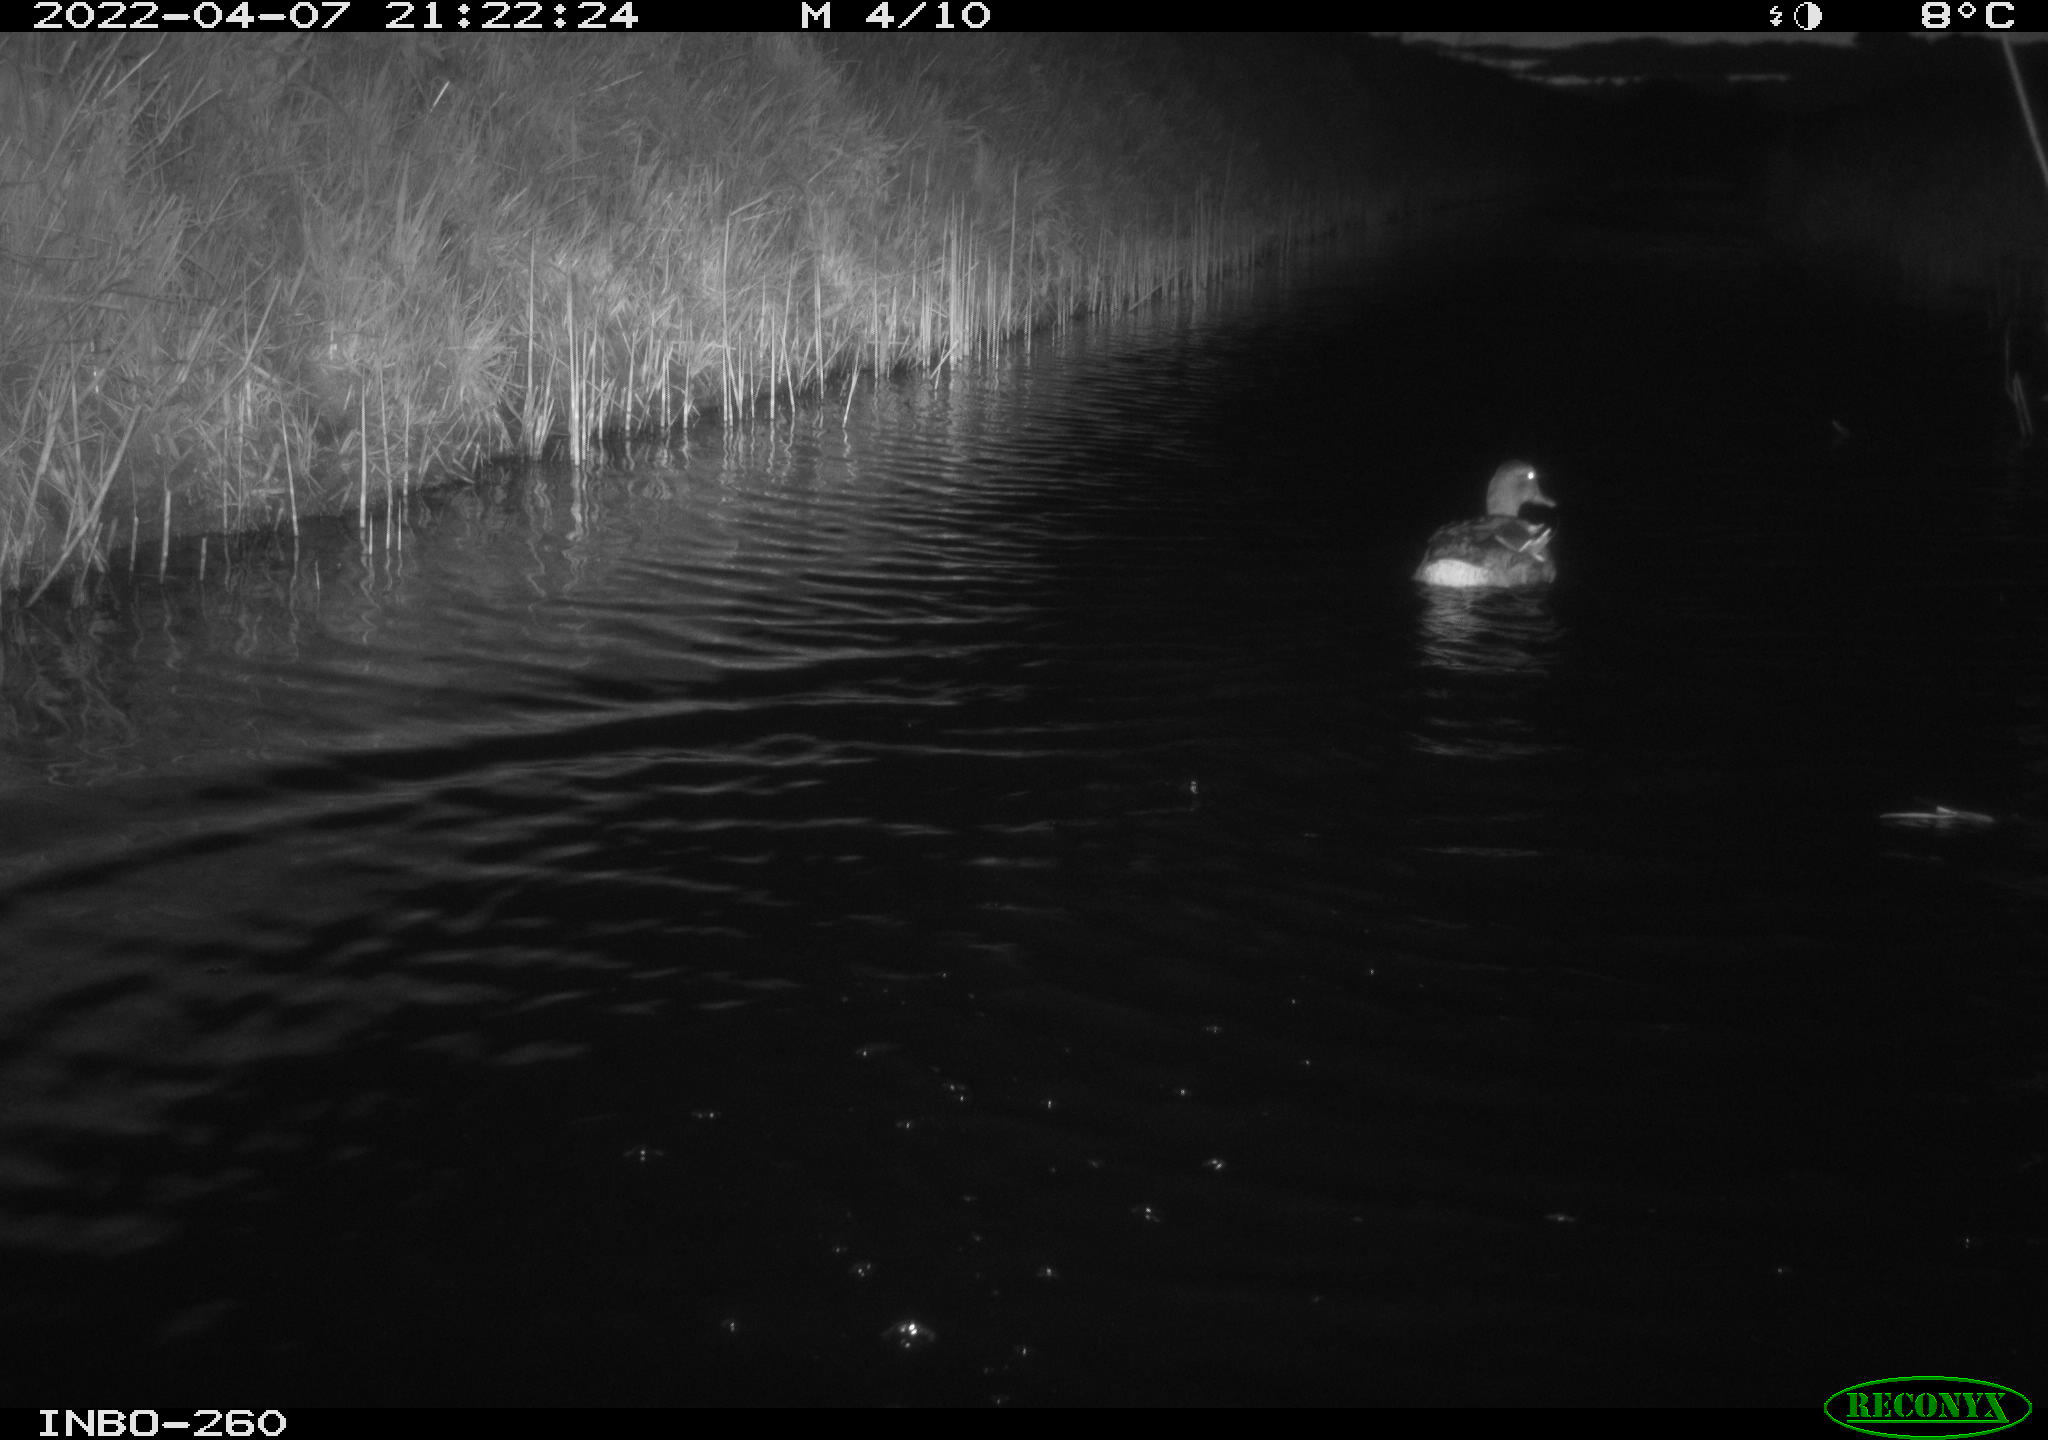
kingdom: Animalia
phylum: Chordata
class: Aves
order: Anseriformes
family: Anatidae
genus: Anas
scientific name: Anas platyrhynchos
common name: Mallard
